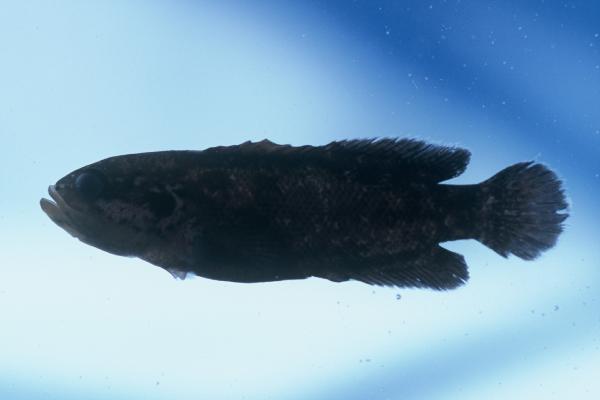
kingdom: Animalia
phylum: Chordata
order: Perciformes
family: Serranidae
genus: Pseudogramma
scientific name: Pseudogramma polyacantha
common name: Bold-spot soapfish
